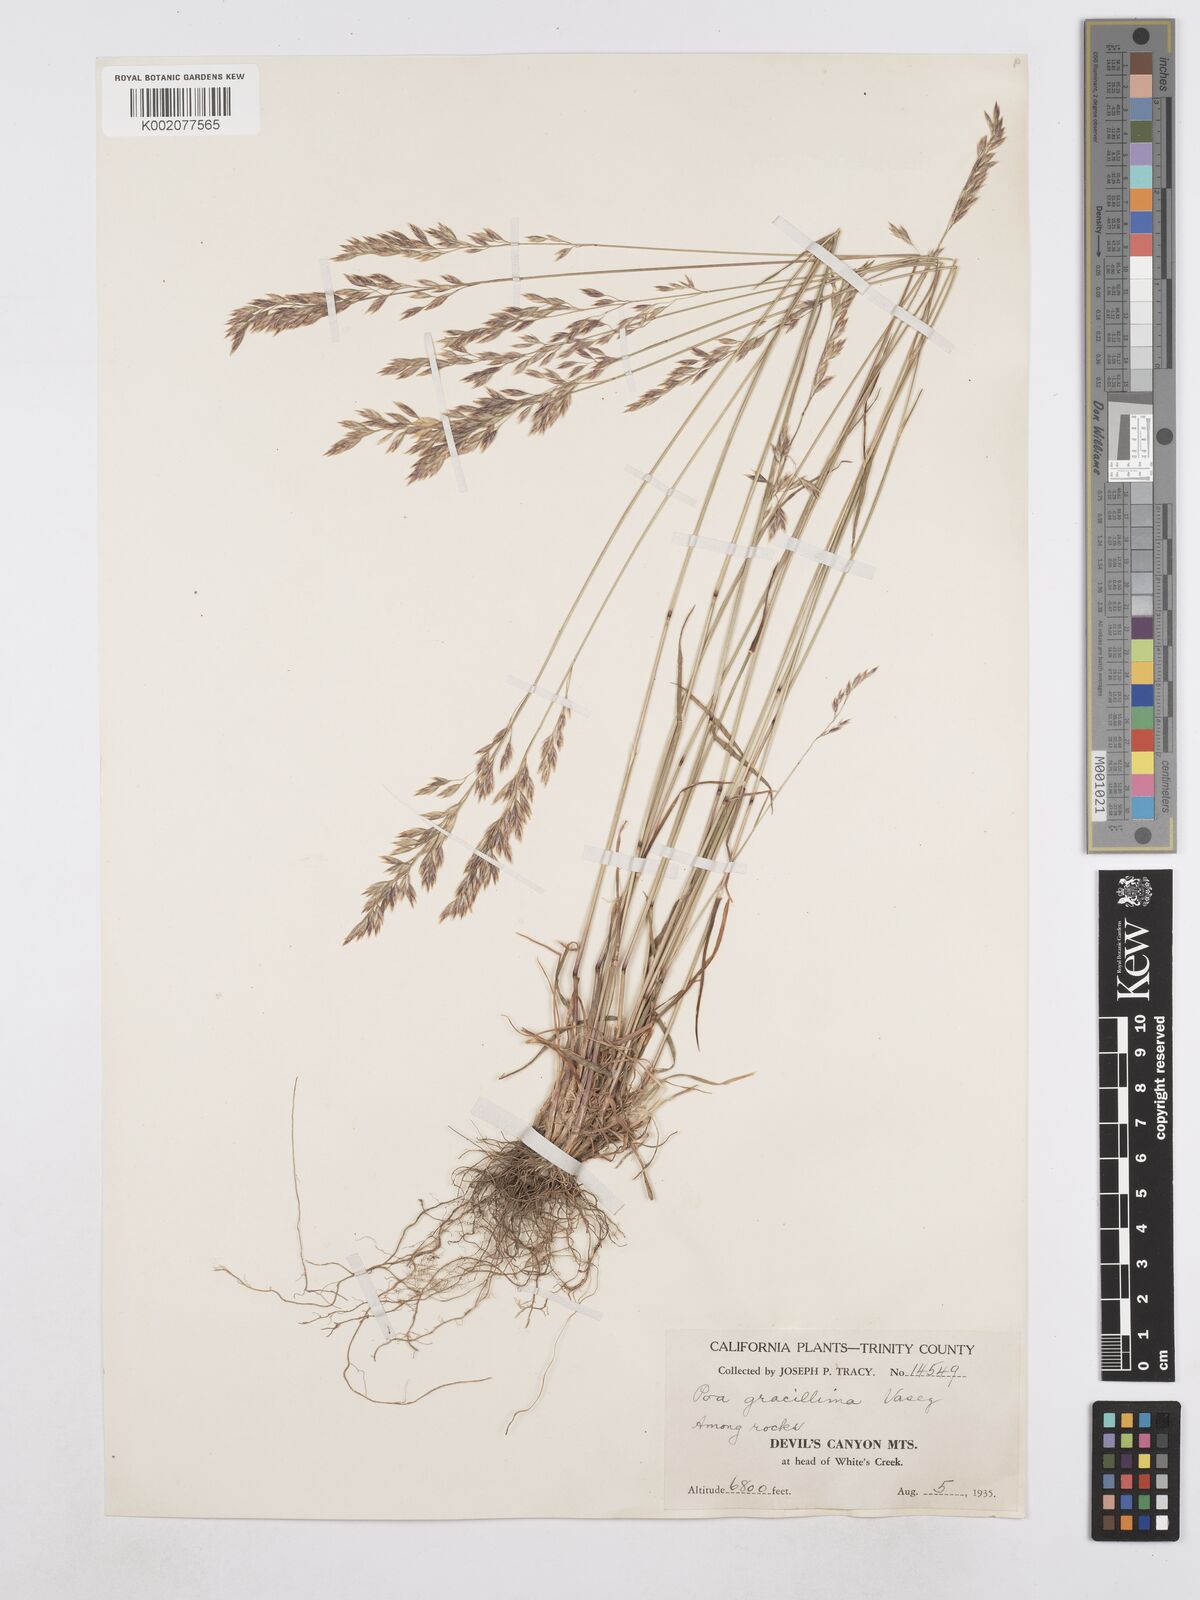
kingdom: Plantae
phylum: Tracheophyta
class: Liliopsida
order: Poales
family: Poaceae
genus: Poa
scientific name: Poa secunda
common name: Sandberg bluegrass
